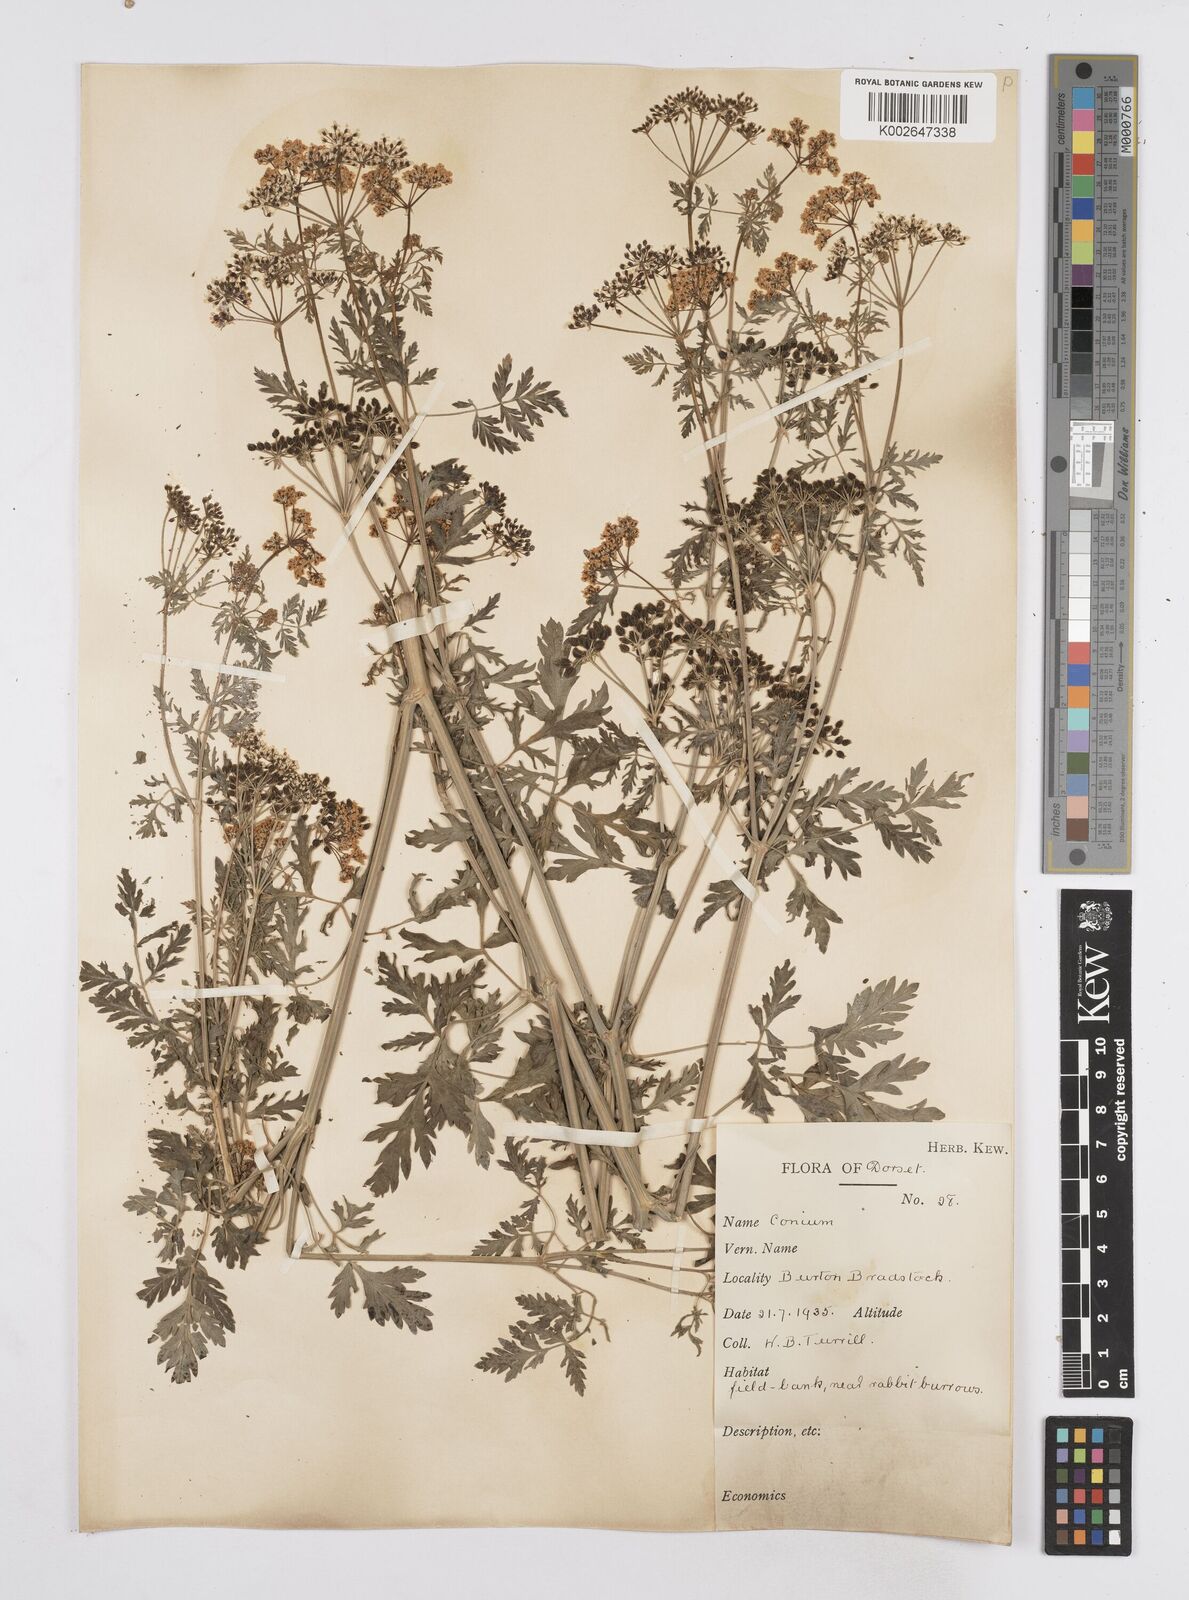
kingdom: Plantae
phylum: Tracheophyta
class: Magnoliopsida
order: Apiales
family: Apiaceae
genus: Conium
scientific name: Conium maculatum
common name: Hemlock
